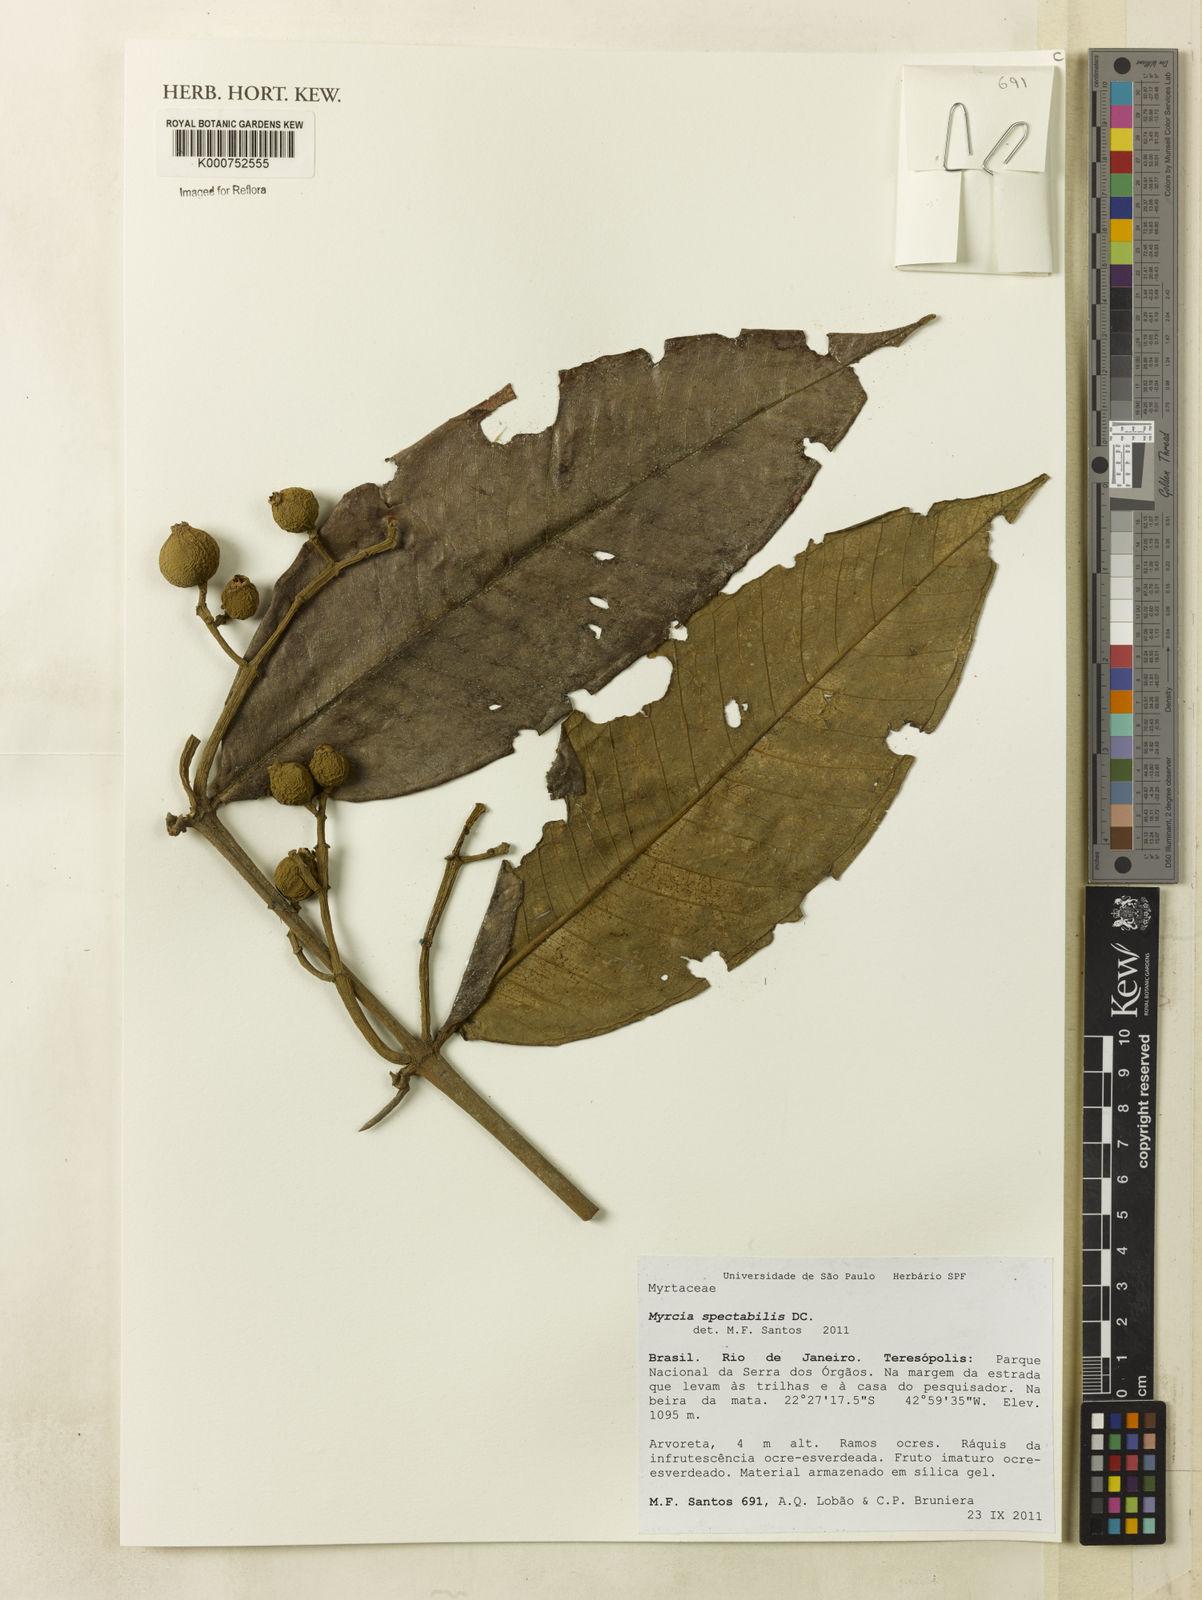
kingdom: Plantae
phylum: Tracheophyta
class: Magnoliopsida
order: Myrtales
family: Myrtaceae
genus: Myrcia
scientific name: Myrcia spectabilis
